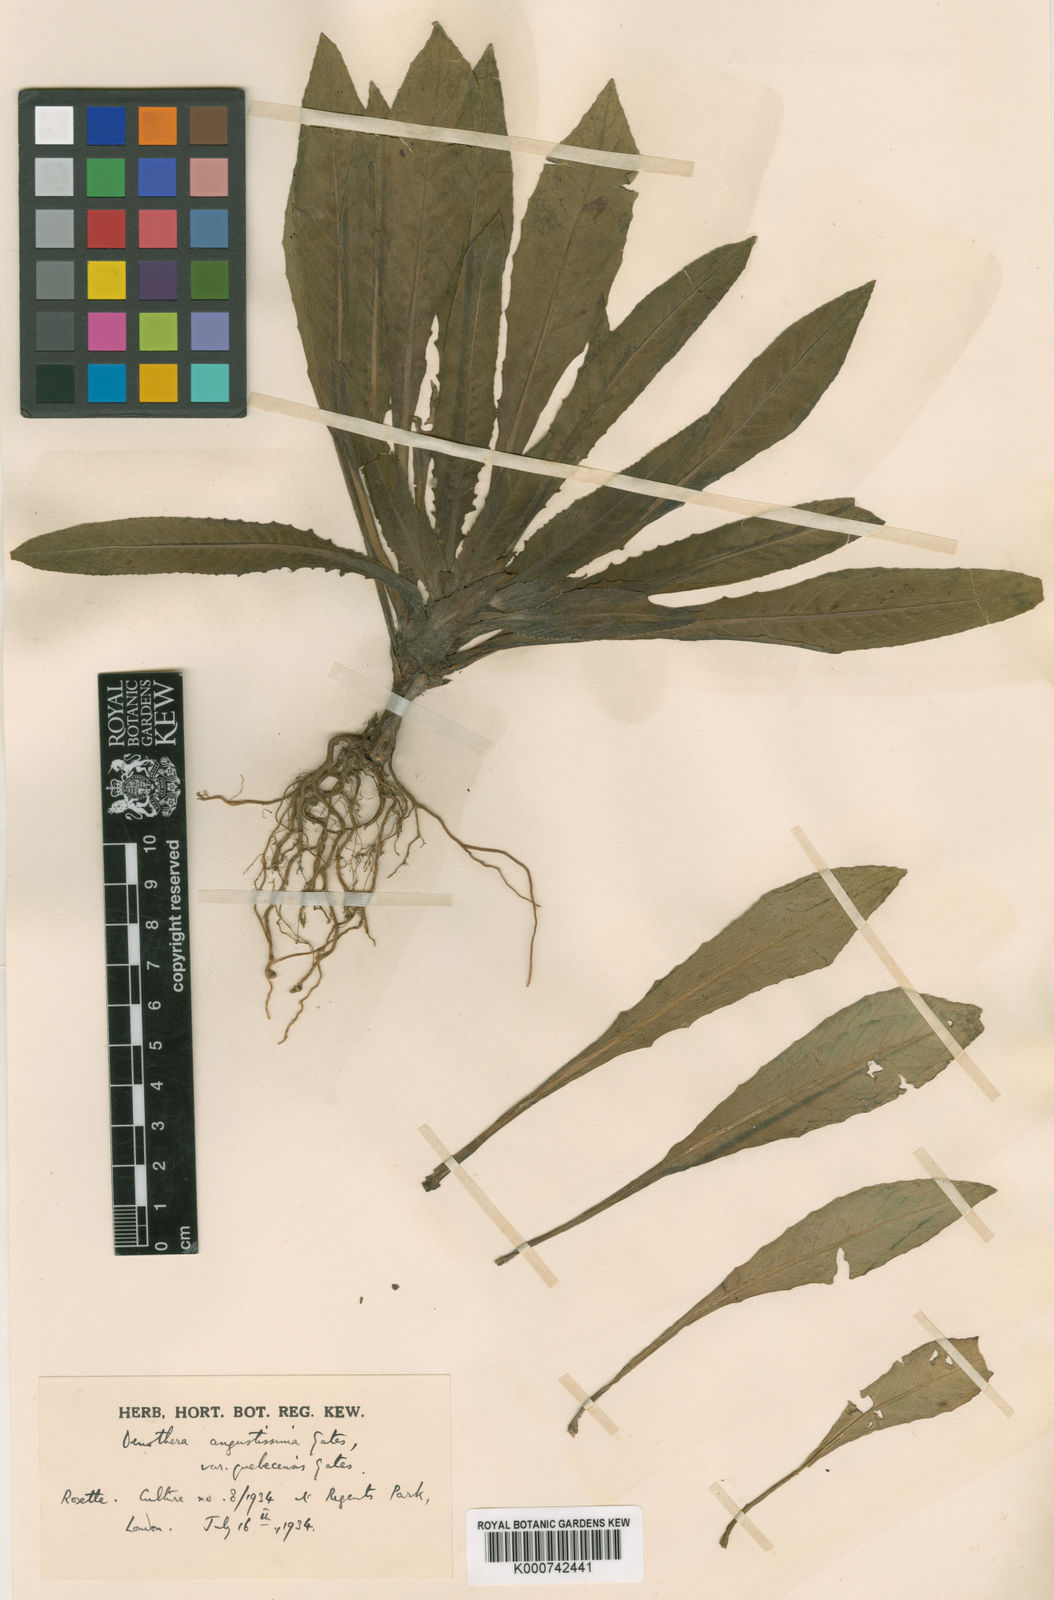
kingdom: Plantae
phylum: Tracheophyta
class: Magnoliopsida
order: Myrtales
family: Onagraceae
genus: Oenothera
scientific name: Oenothera parviflora
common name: Least evening-primrose
